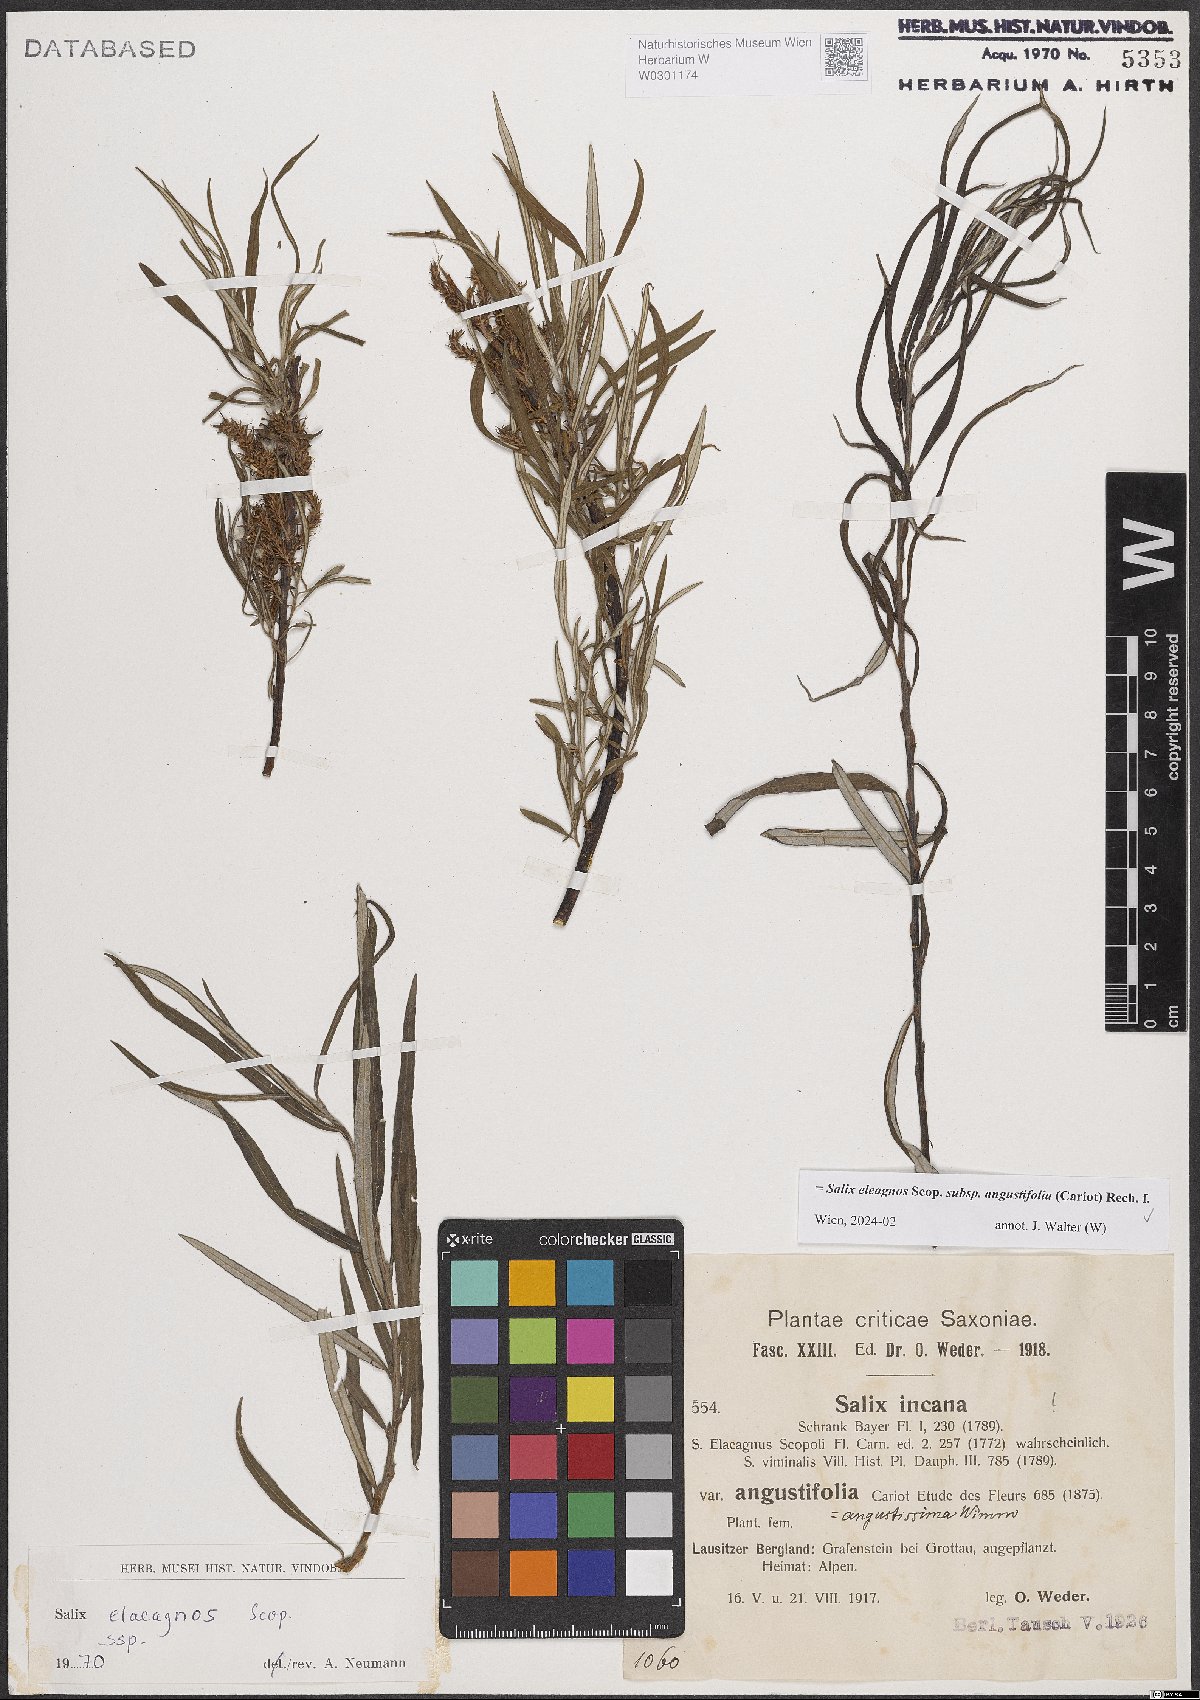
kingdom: Plantae
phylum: Tracheophyta
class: Magnoliopsida
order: Malpighiales
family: Salicaceae
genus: Salix
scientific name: Salix eleagnos
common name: Elaeagnus willow
